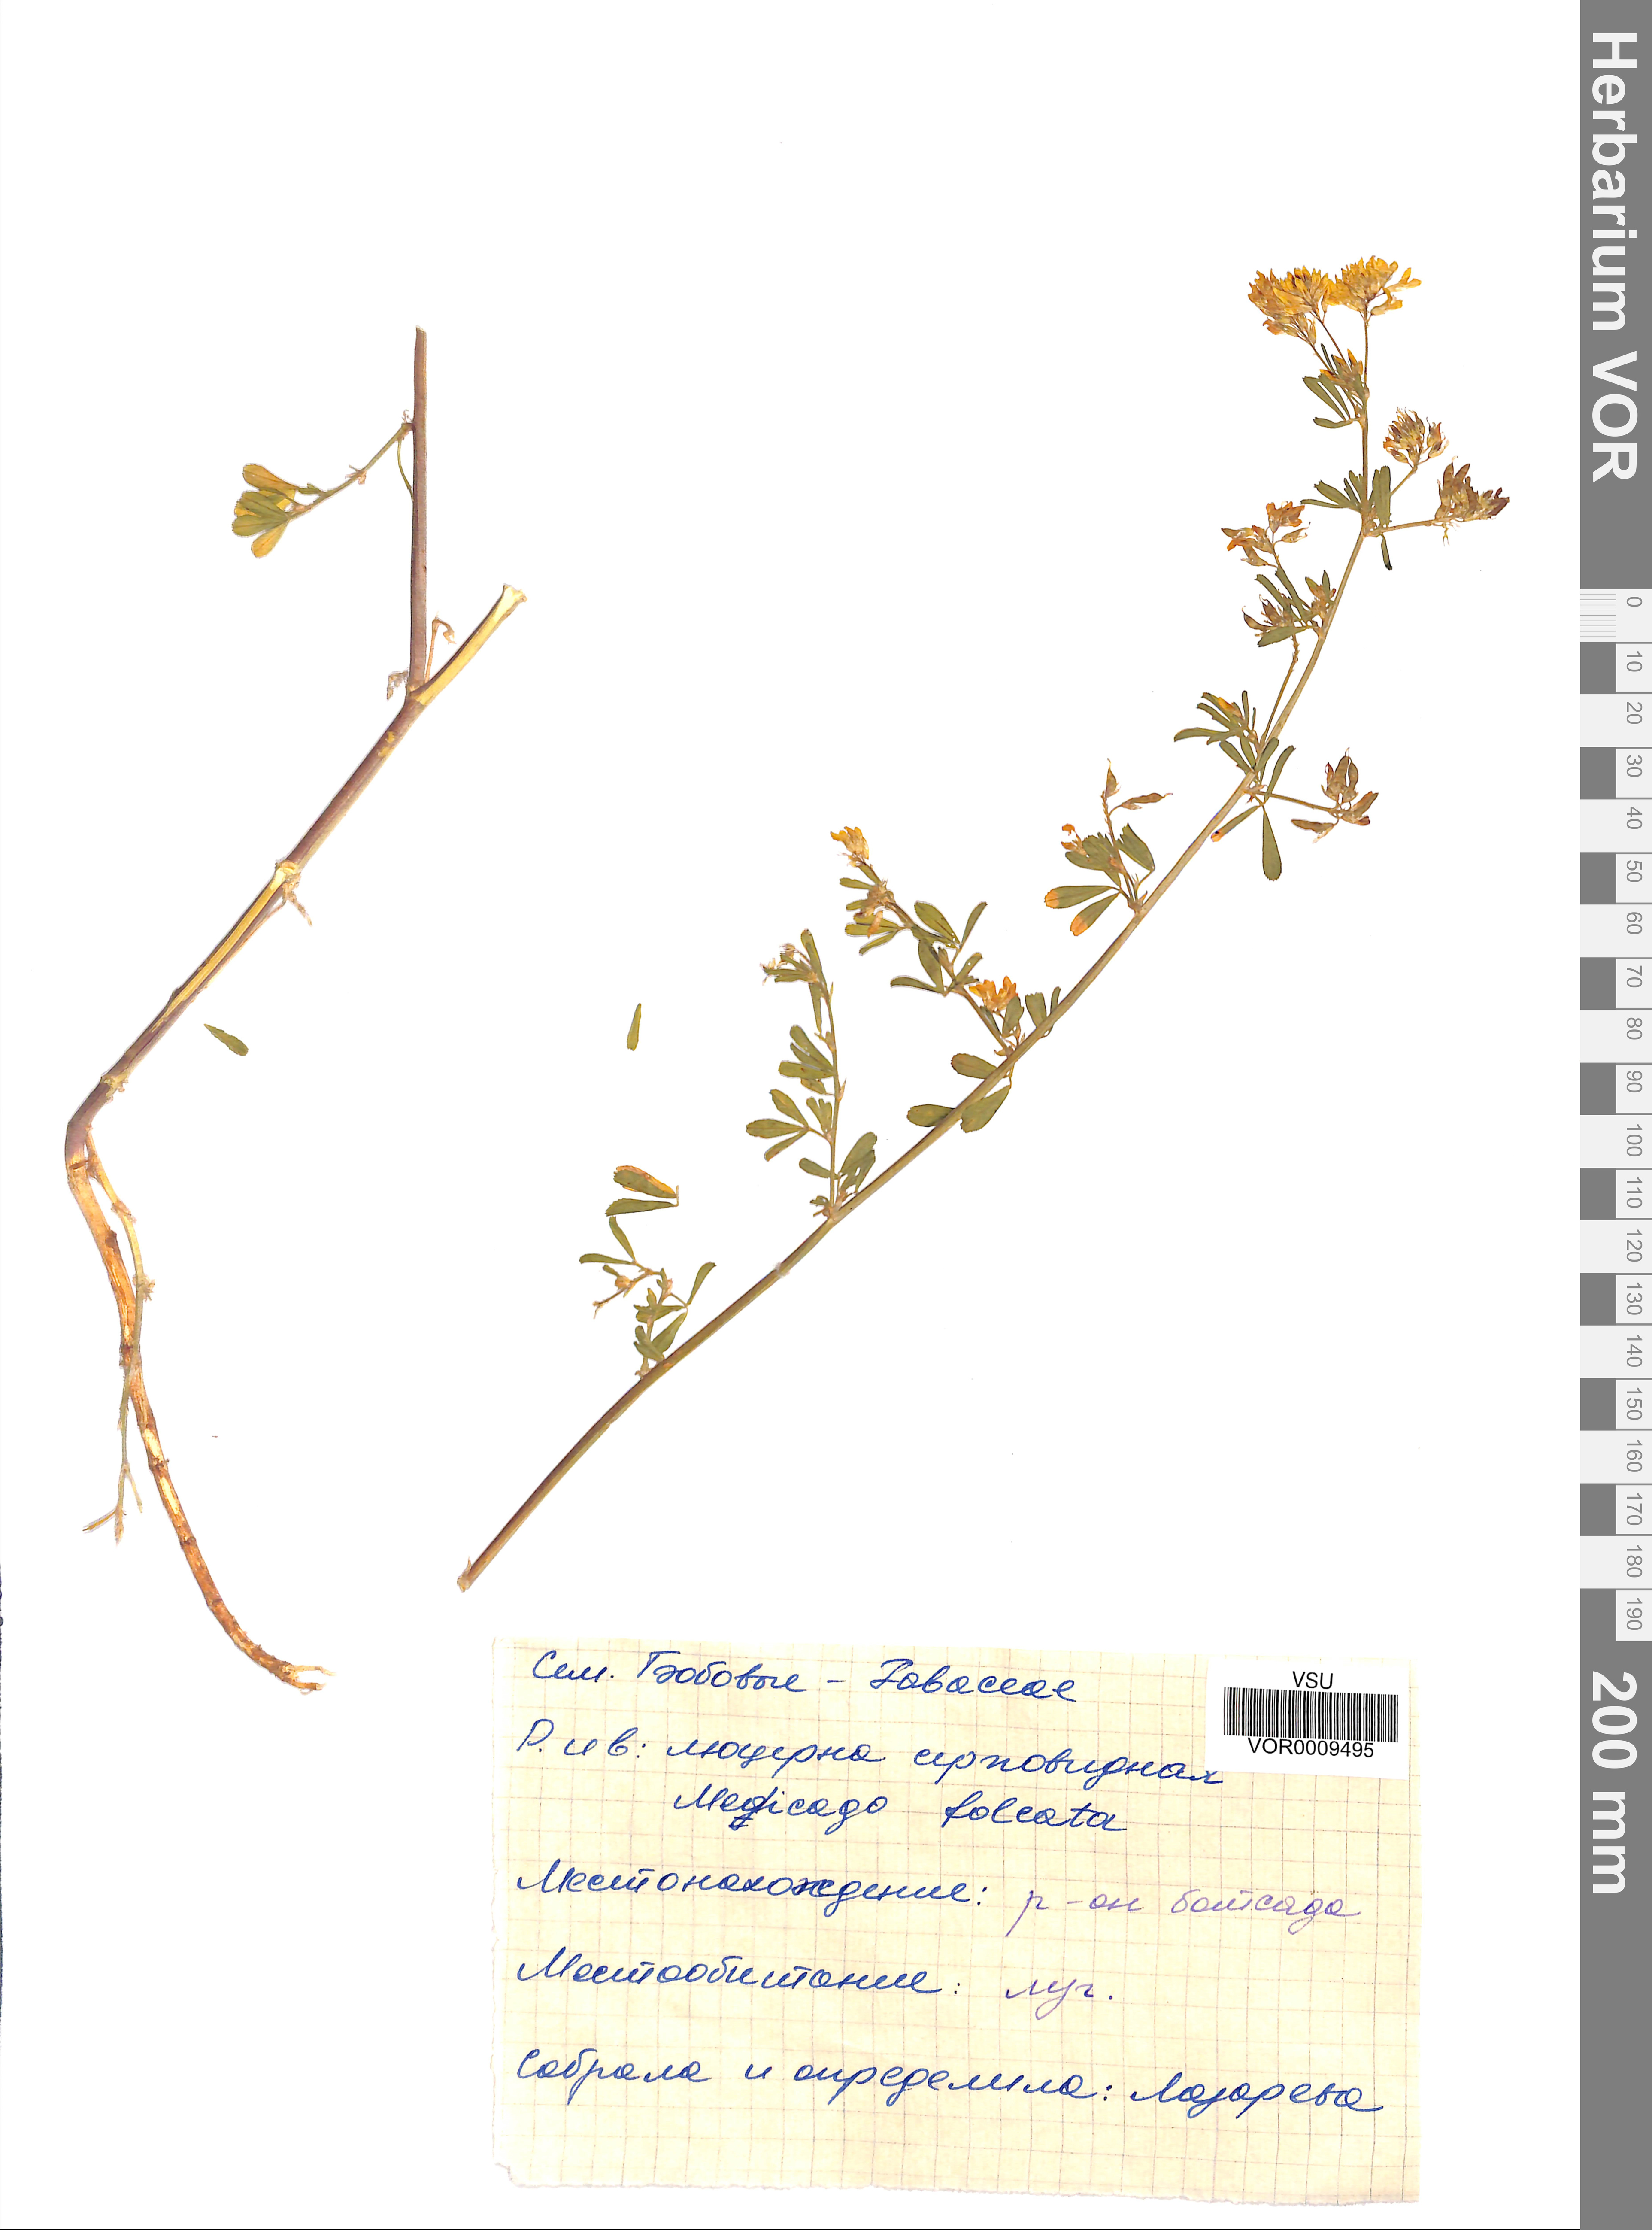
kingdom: Plantae
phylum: Tracheophyta
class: Magnoliopsida
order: Fabales
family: Fabaceae
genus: Medicago
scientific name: Medicago falcata
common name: Sickle medick
